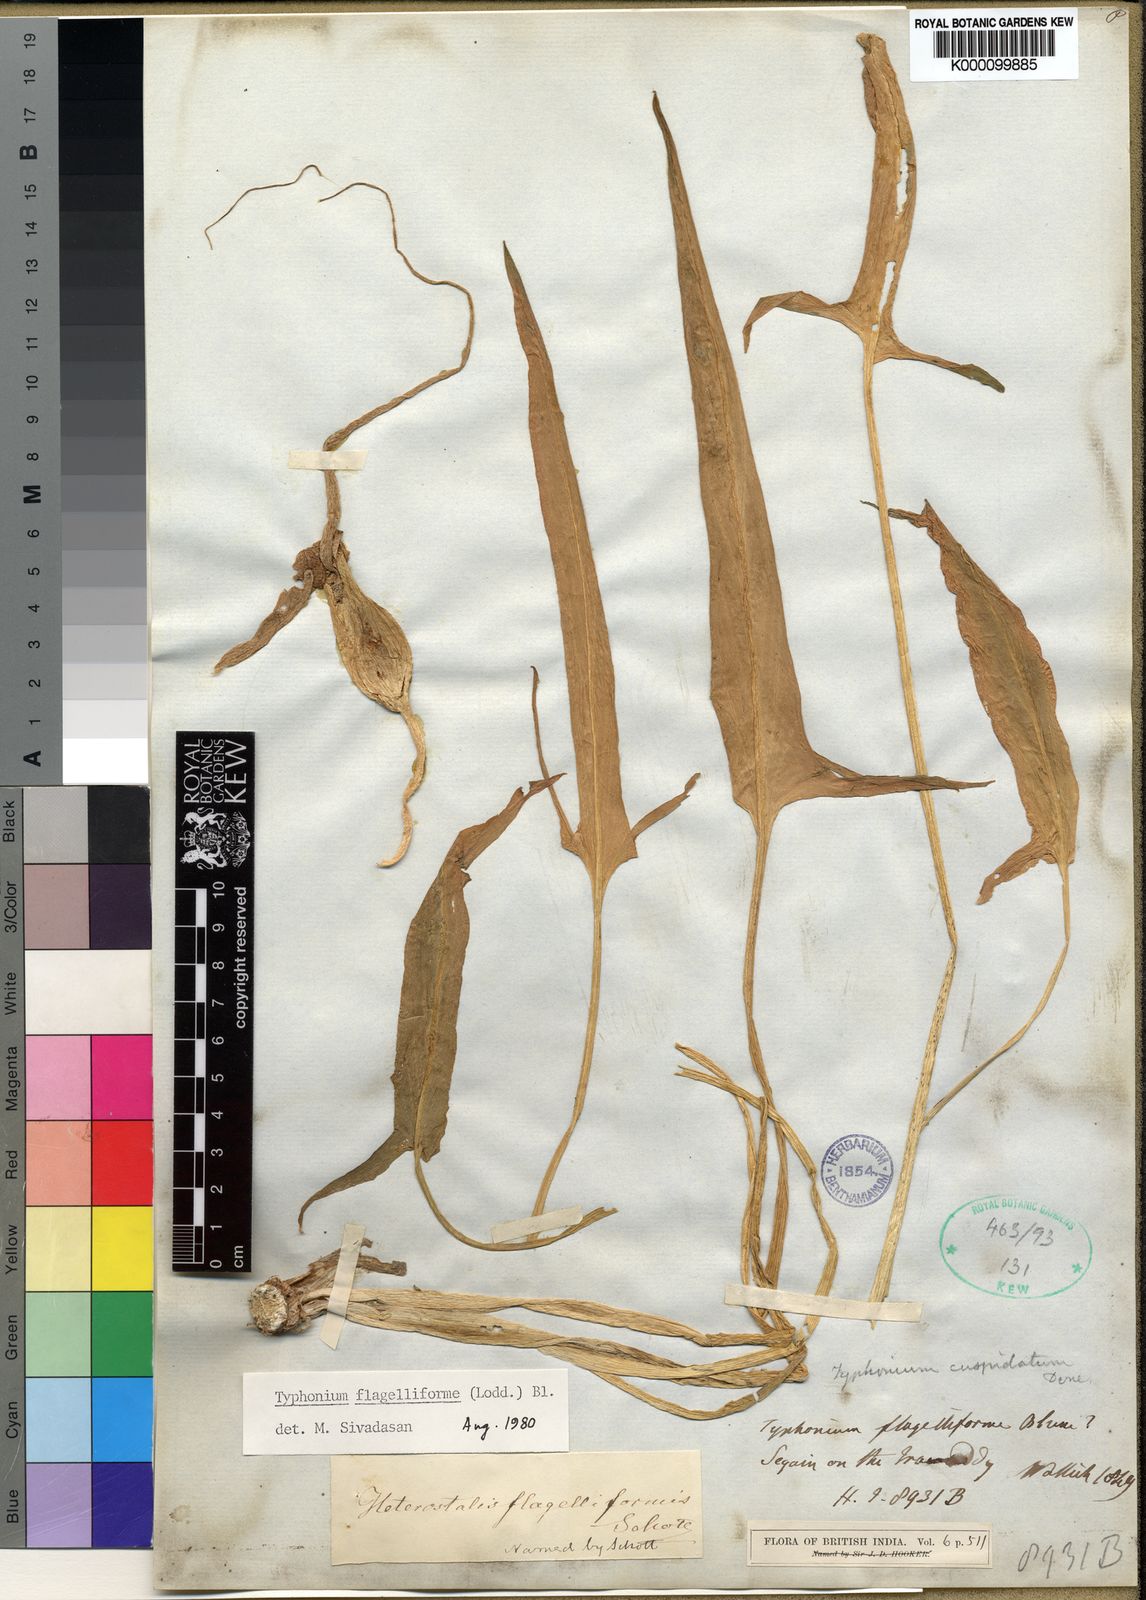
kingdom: Plantae
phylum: Tracheophyta
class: Liliopsida
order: Alismatales
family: Araceae
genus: Typhonium
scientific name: Typhonium flagelliforme
